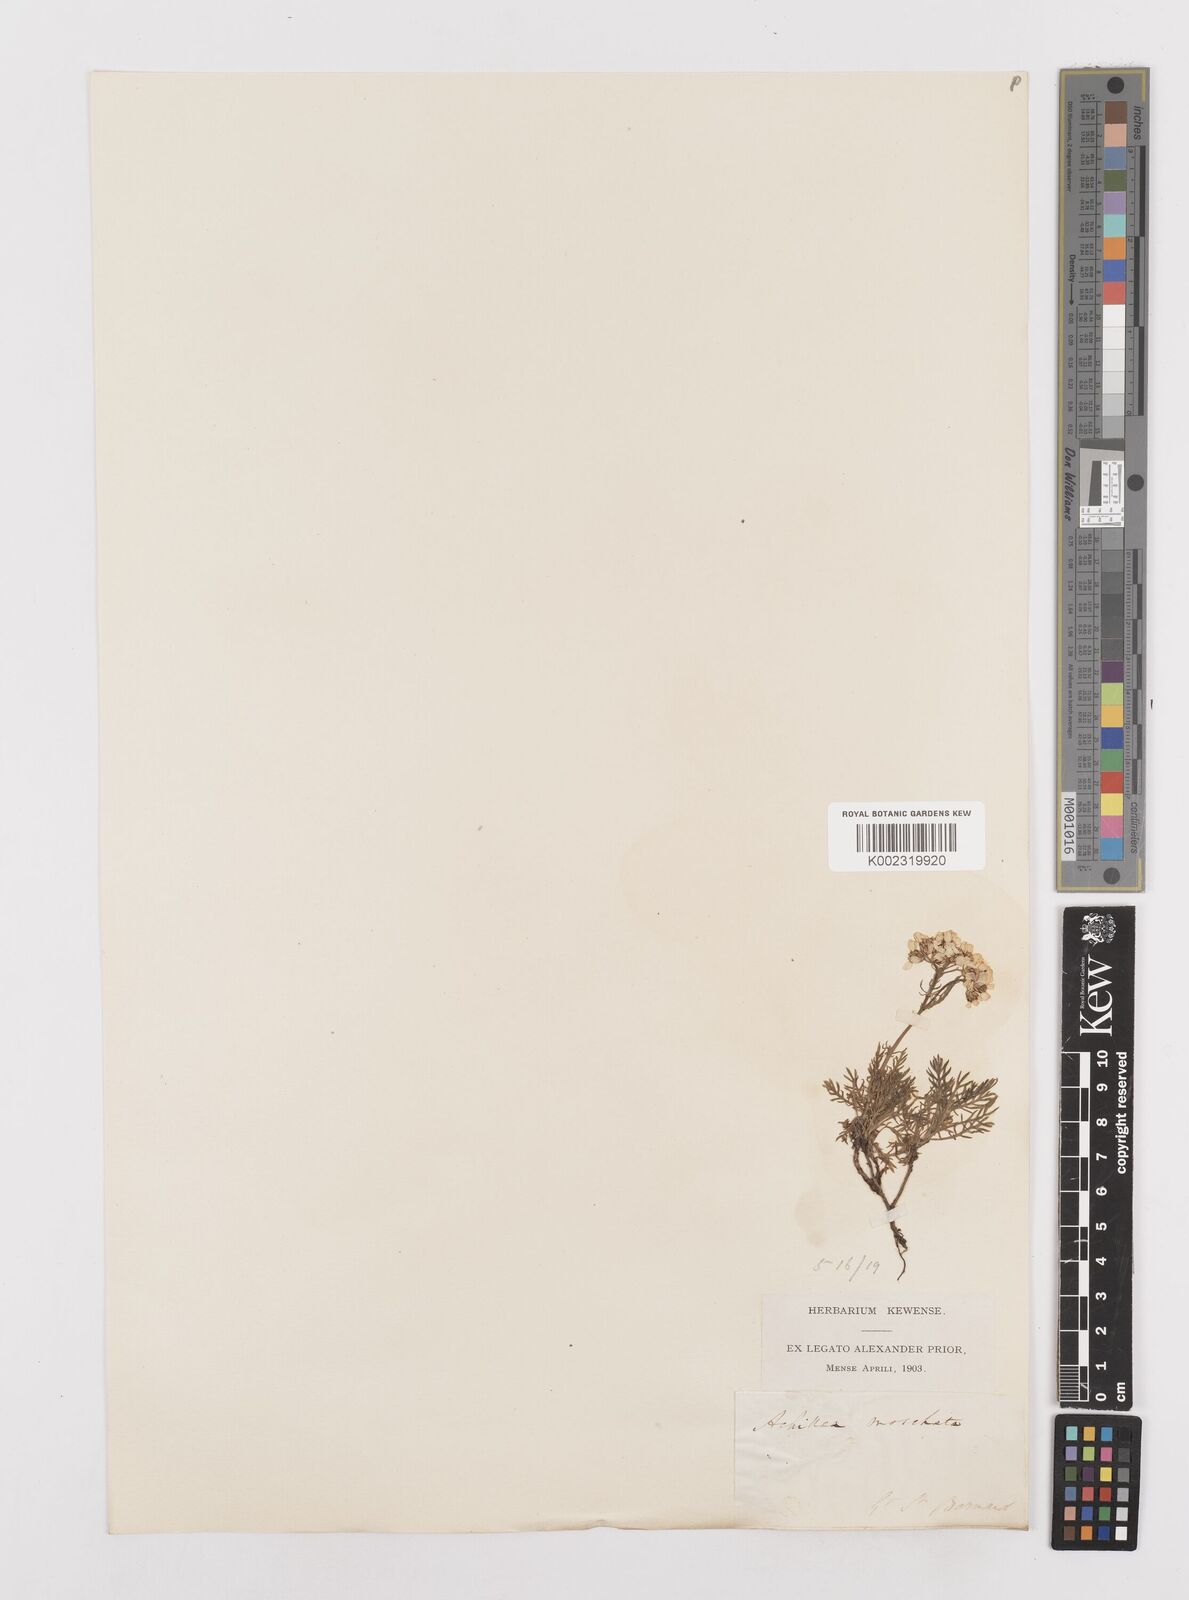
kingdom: Plantae
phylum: Tracheophyta
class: Magnoliopsida
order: Asterales
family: Asteraceae
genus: Achillea
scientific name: Achillea erba-rotta
